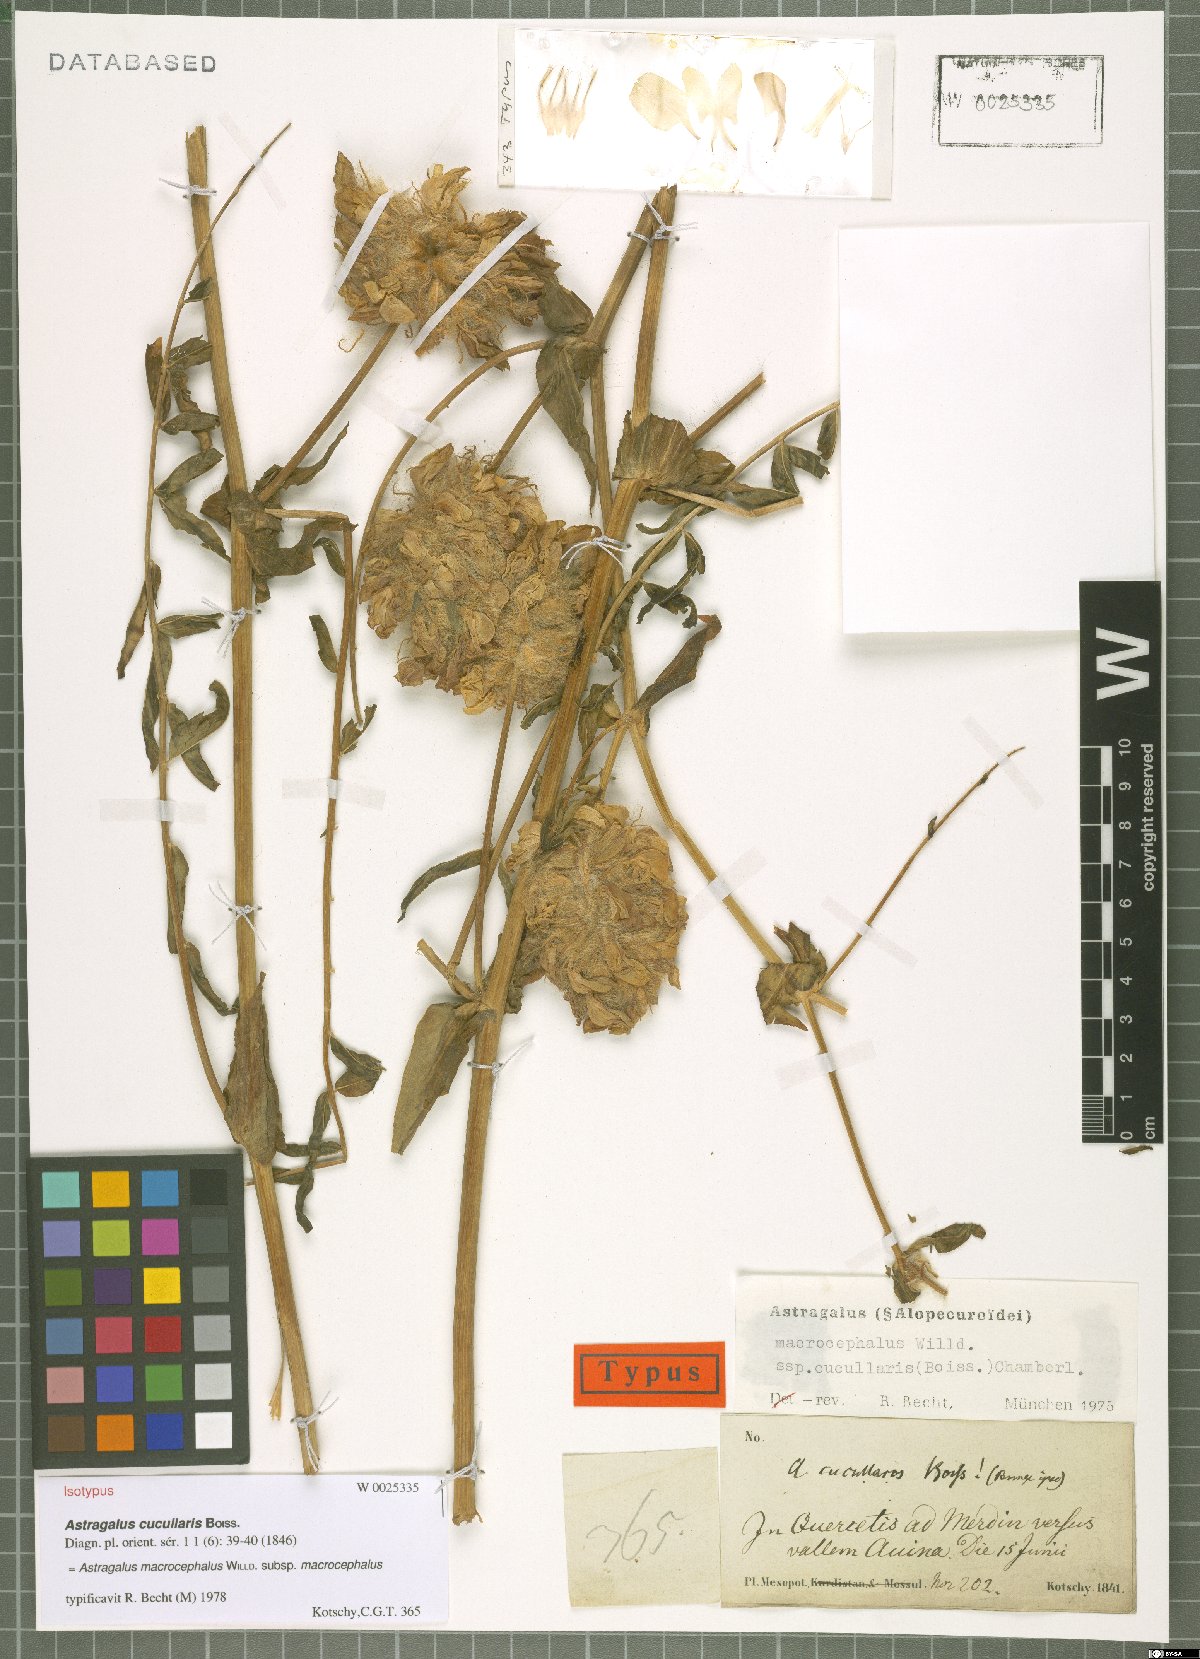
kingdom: Plantae
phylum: Tracheophyta
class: Magnoliopsida
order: Fabales
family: Fabaceae
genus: Astragalus
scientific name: Astragalus macrocephalus
